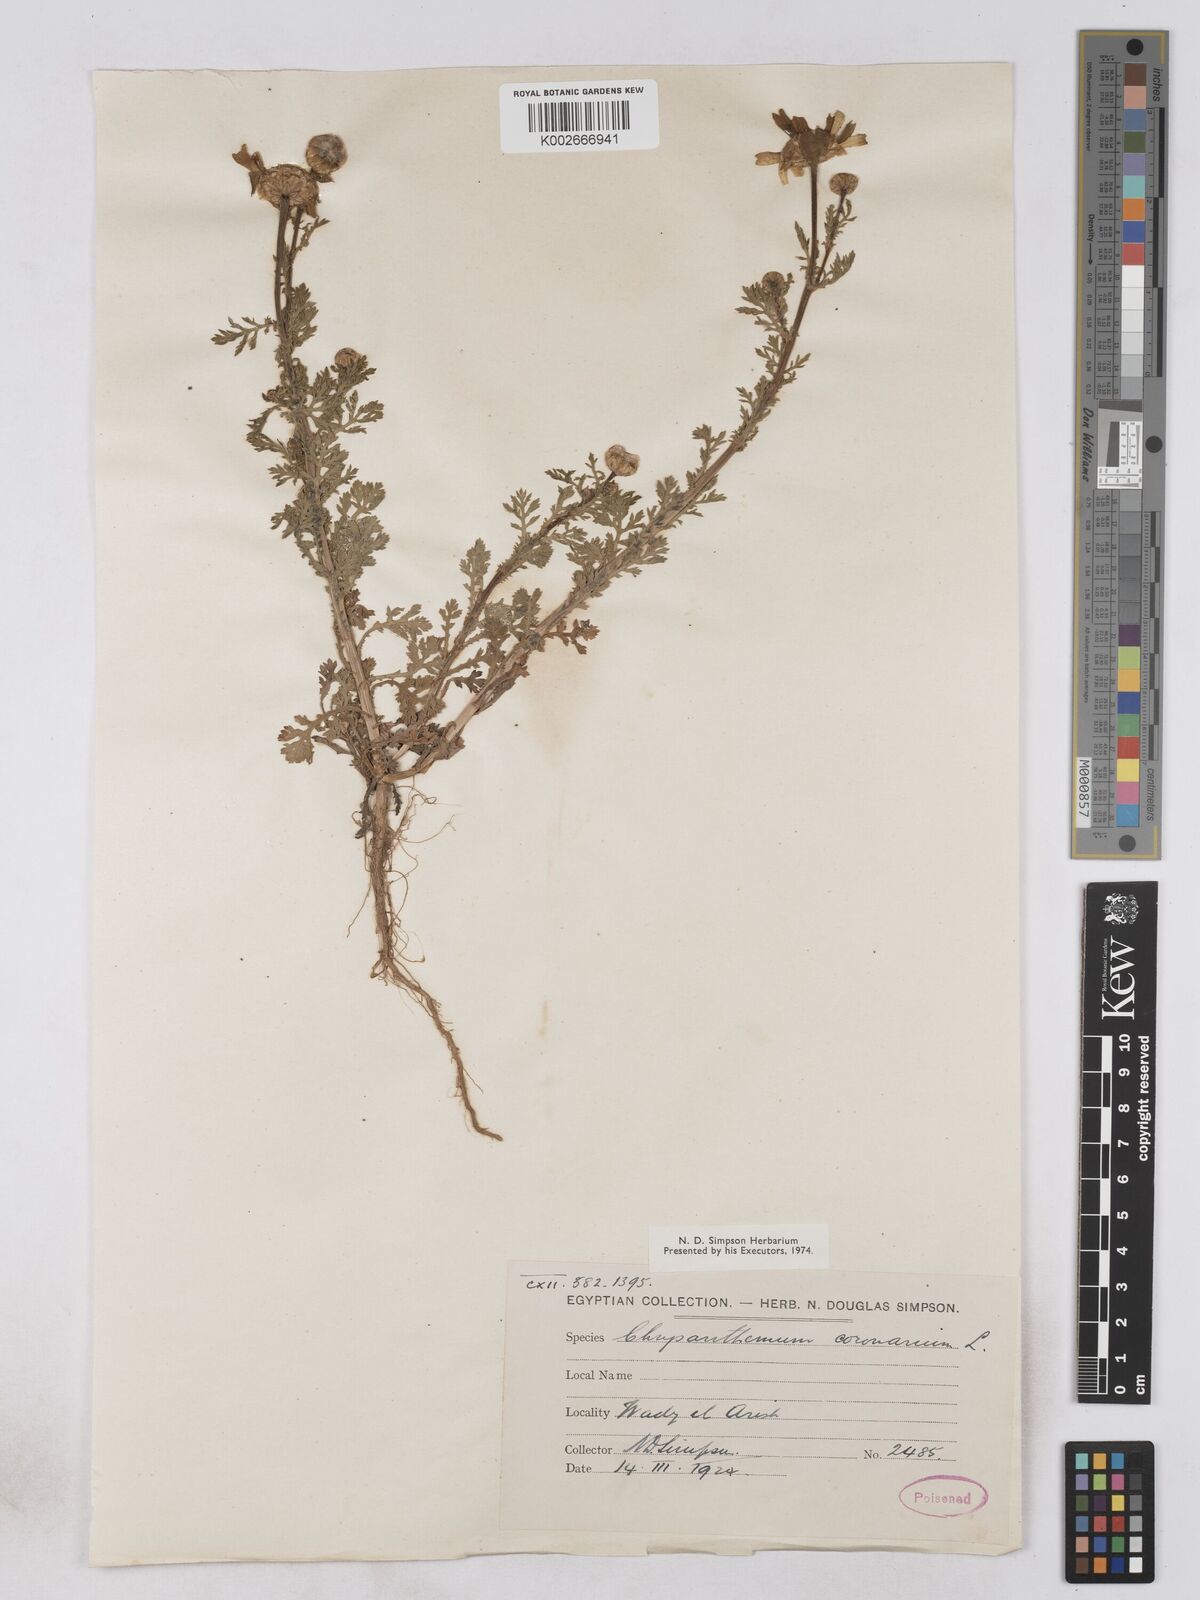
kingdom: Plantae
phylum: Tracheophyta
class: Magnoliopsida
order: Asterales
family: Asteraceae
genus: Glebionis
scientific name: Glebionis coronaria
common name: Crowndaisy
